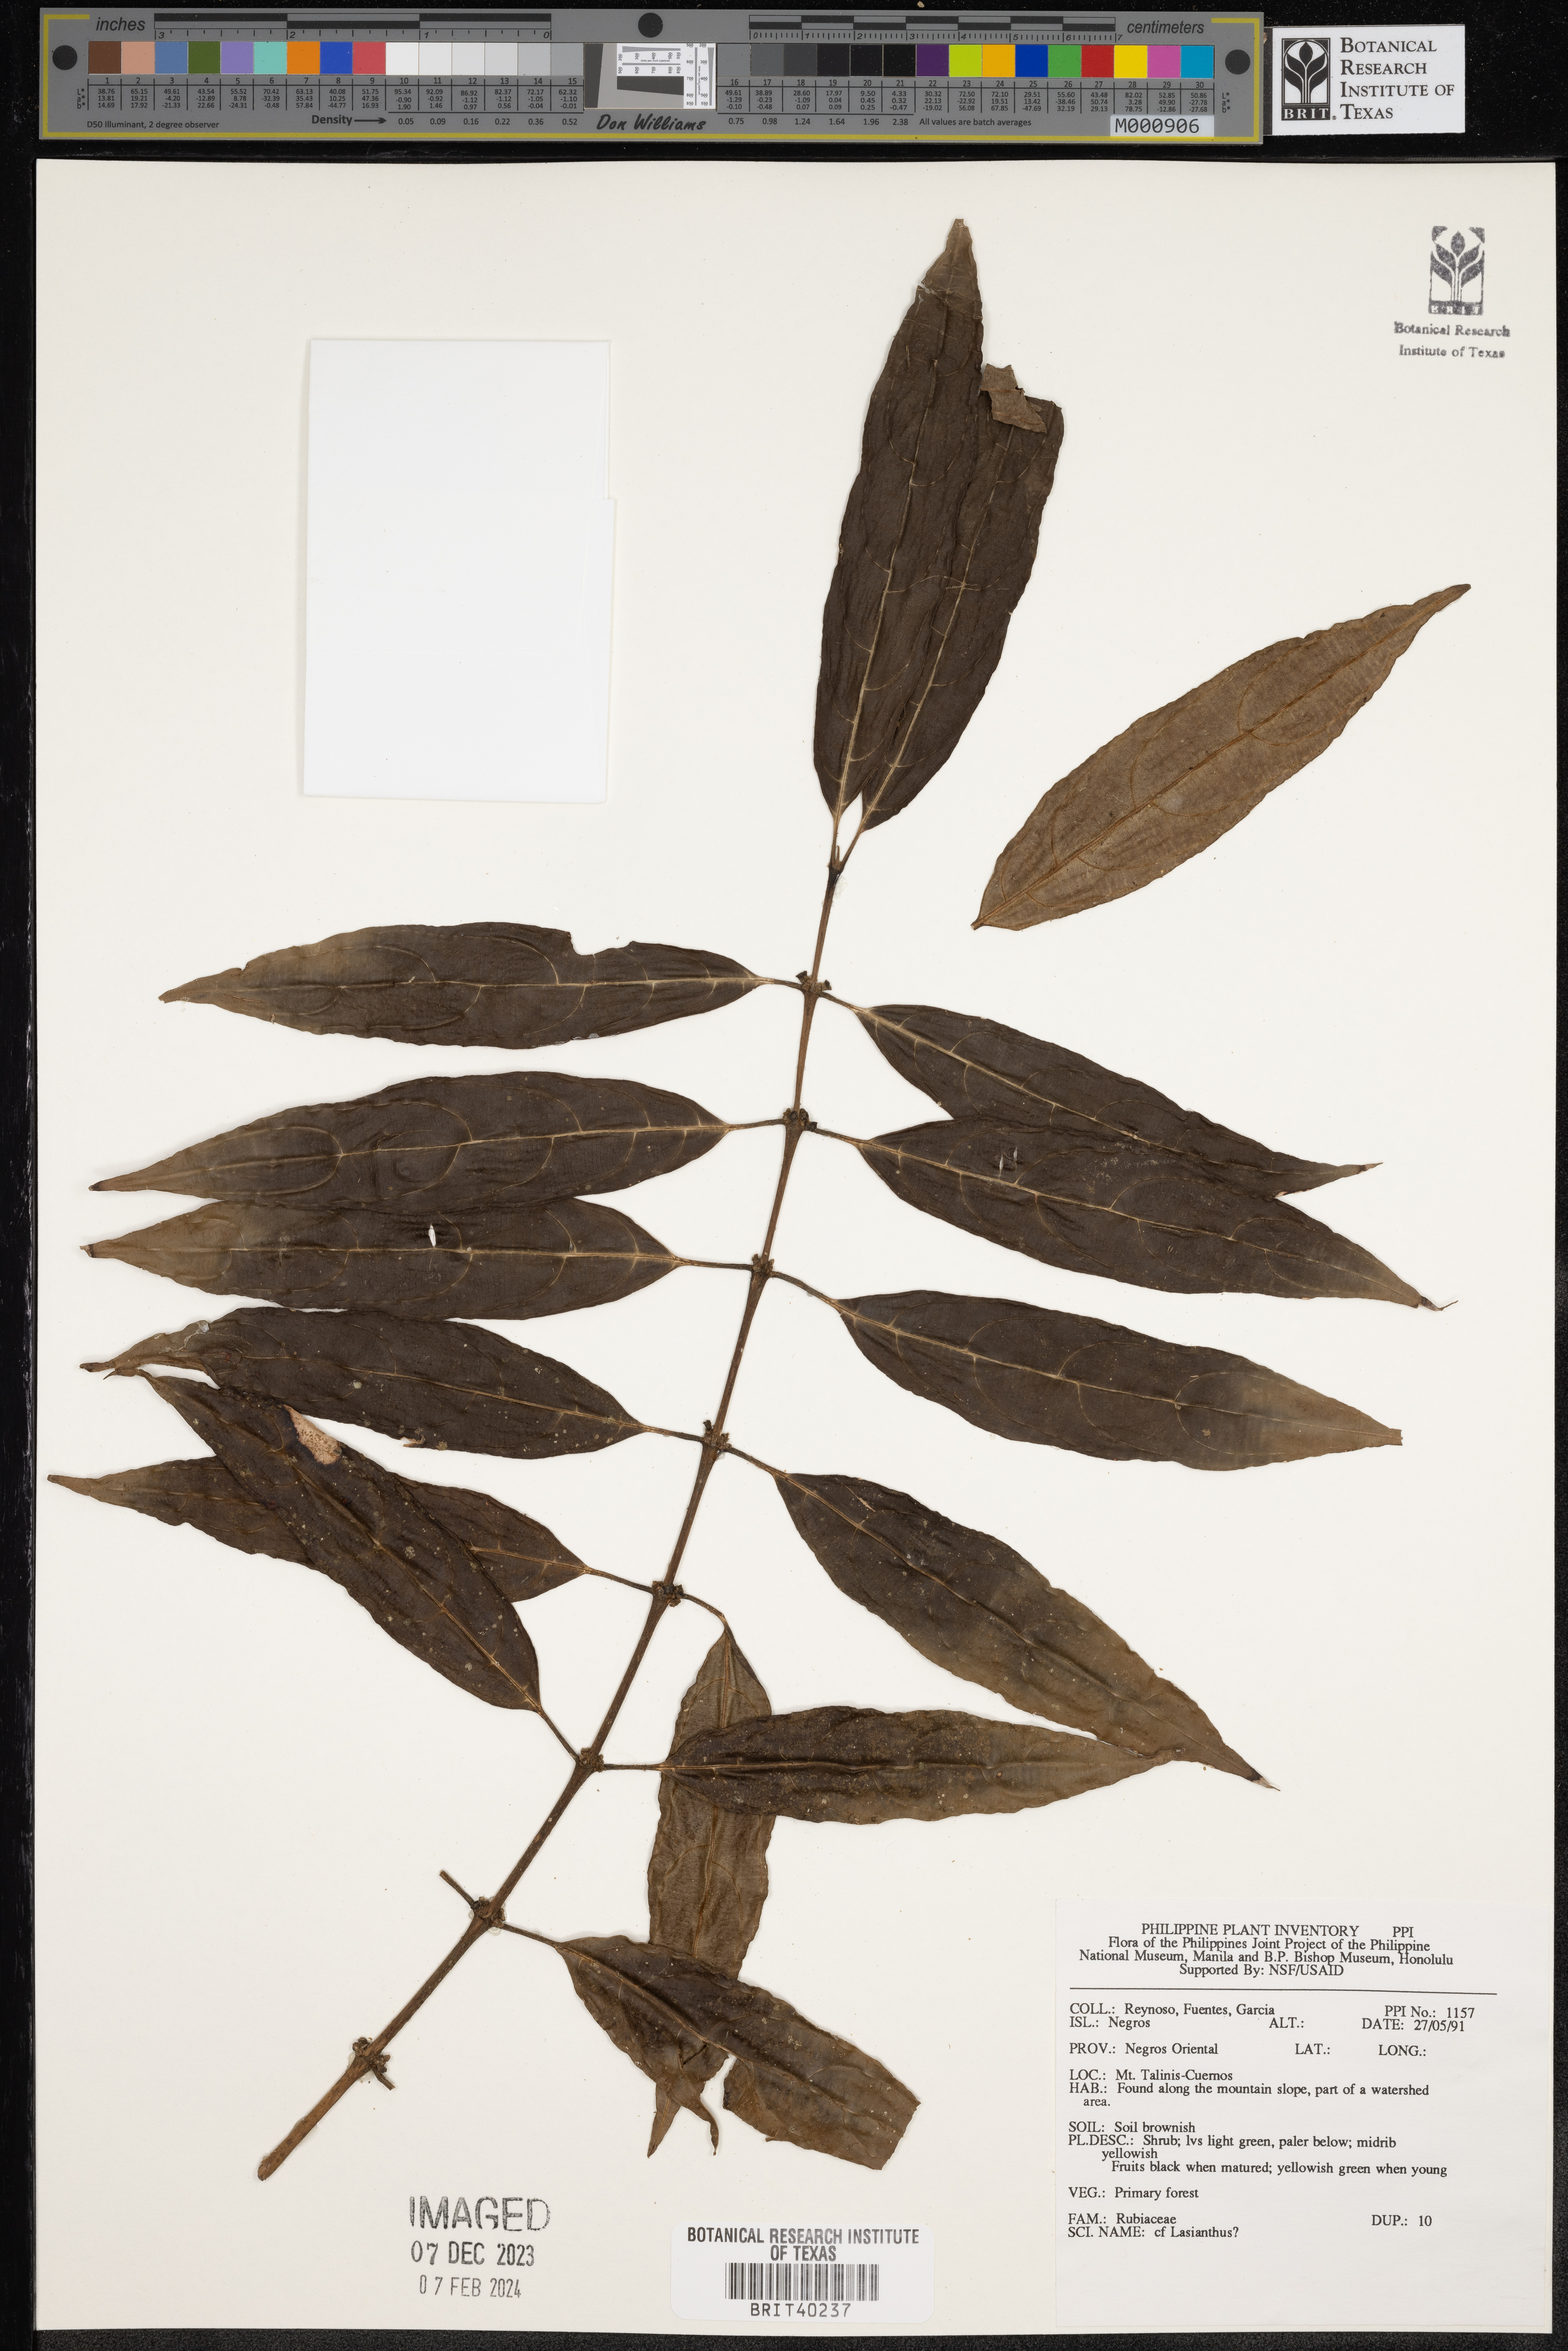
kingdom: Plantae
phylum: Tracheophyta
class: Magnoliopsida
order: Gentianales
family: Rubiaceae
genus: Lasianthus
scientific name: Lasianthus
